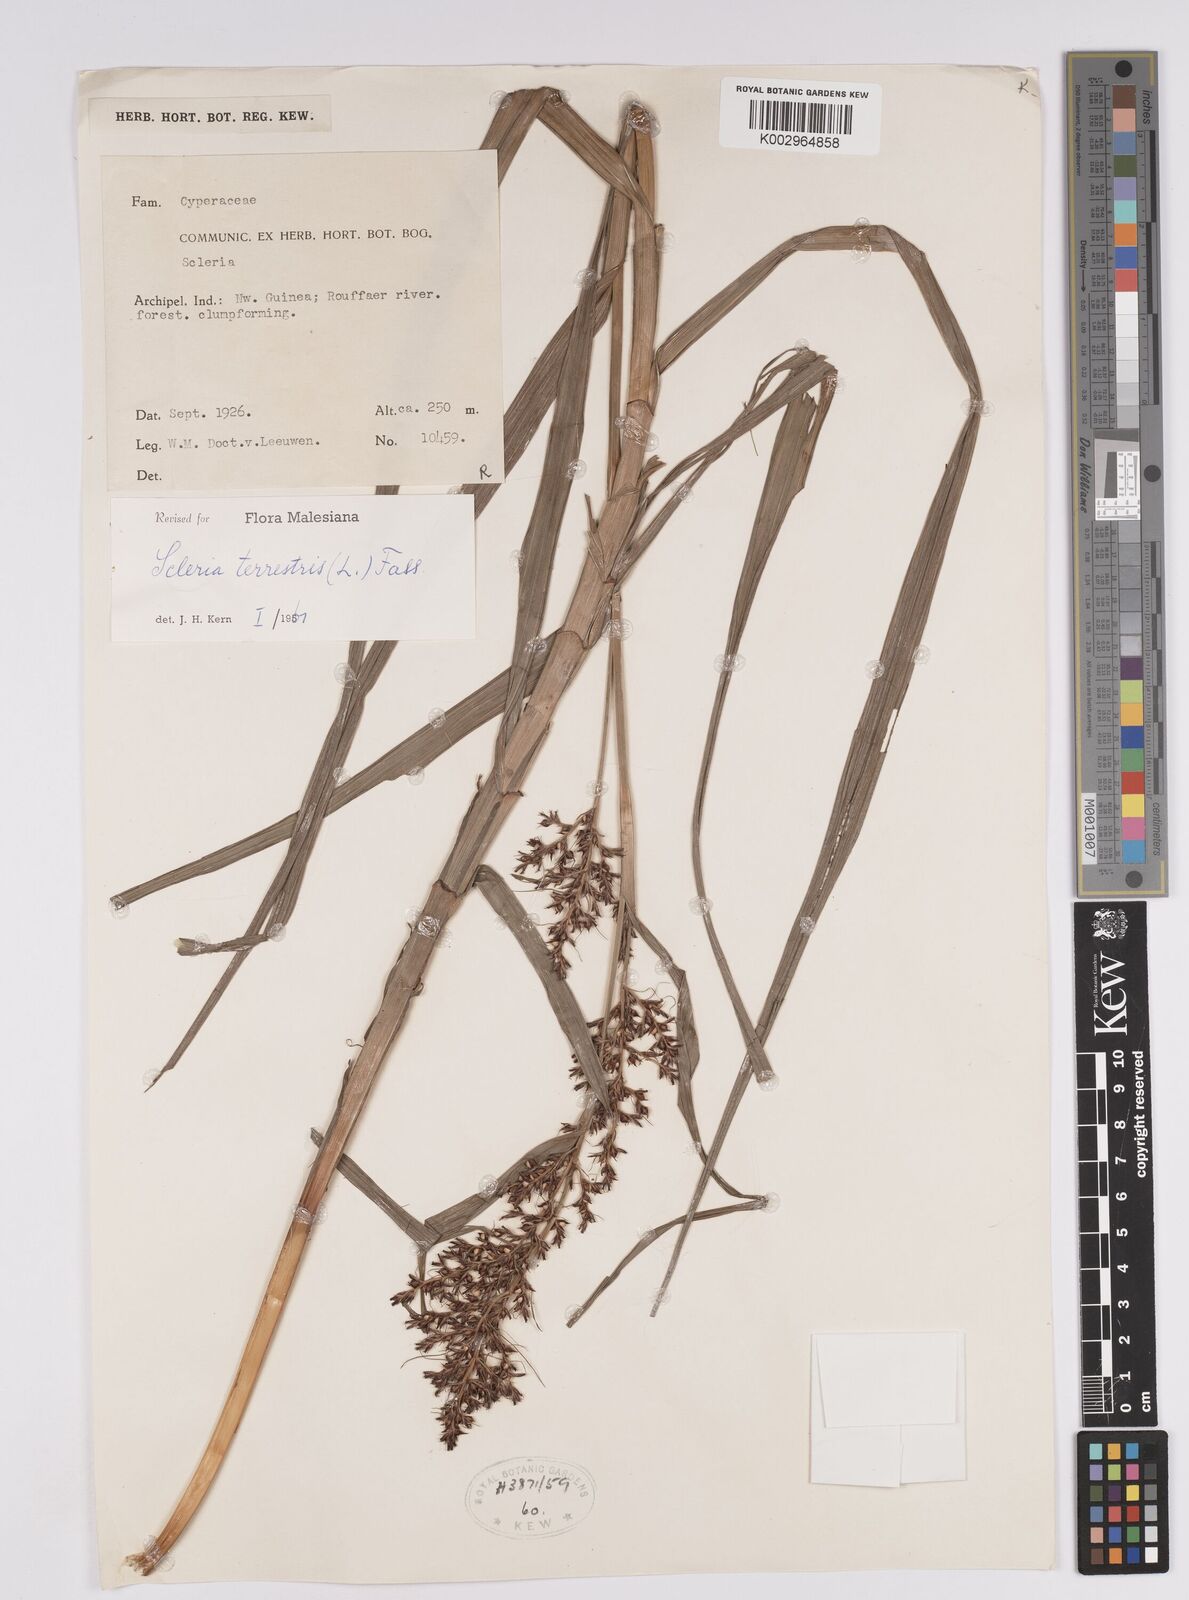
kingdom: Plantae
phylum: Tracheophyta
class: Liliopsida
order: Poales
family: Cyperaceae
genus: Scleria
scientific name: Scleria terrestris
